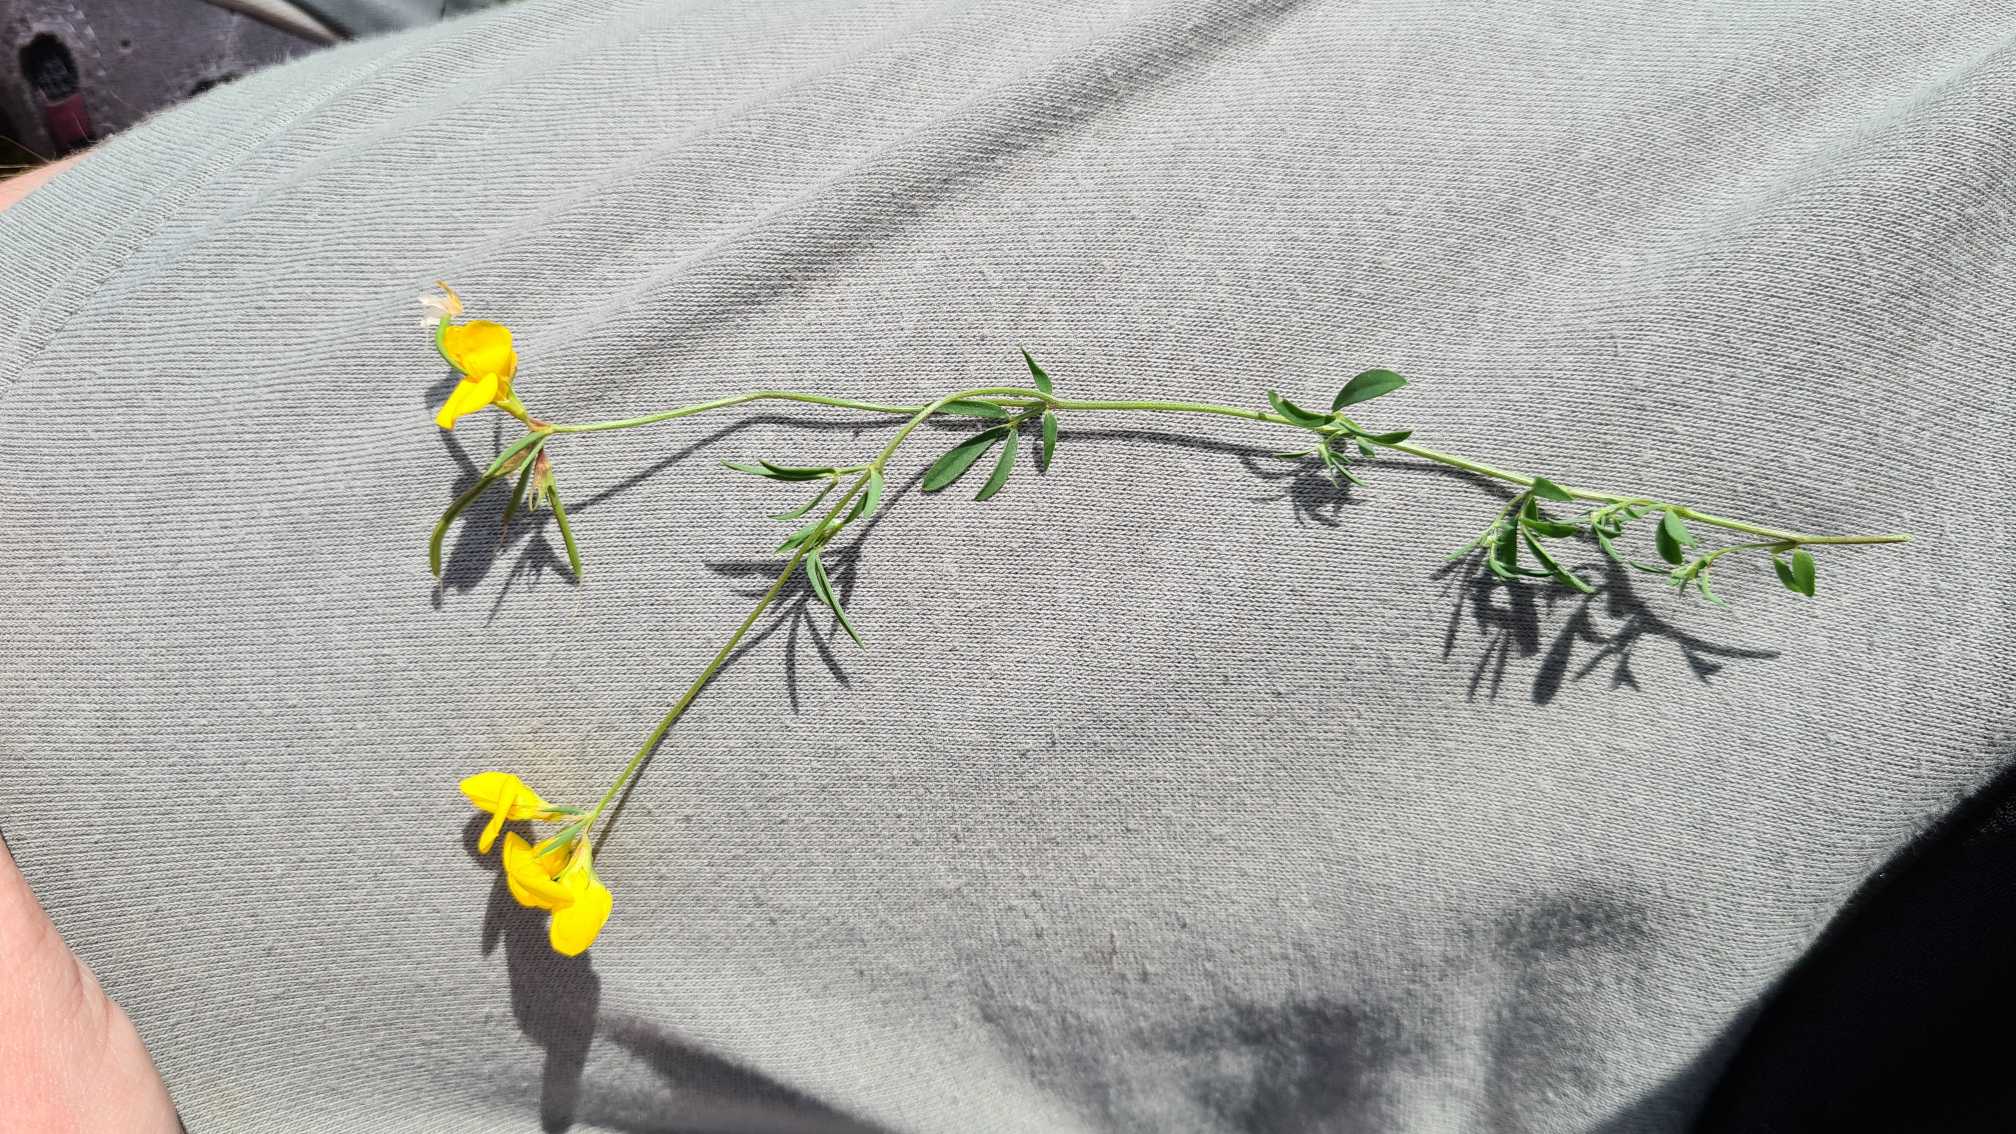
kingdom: Plantae
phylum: Tracheophyta
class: Magnoliopsida
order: Fabales
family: Fabaceae
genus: Lotus
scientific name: Lotus tenuis
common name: Smalbladet kællingetand
